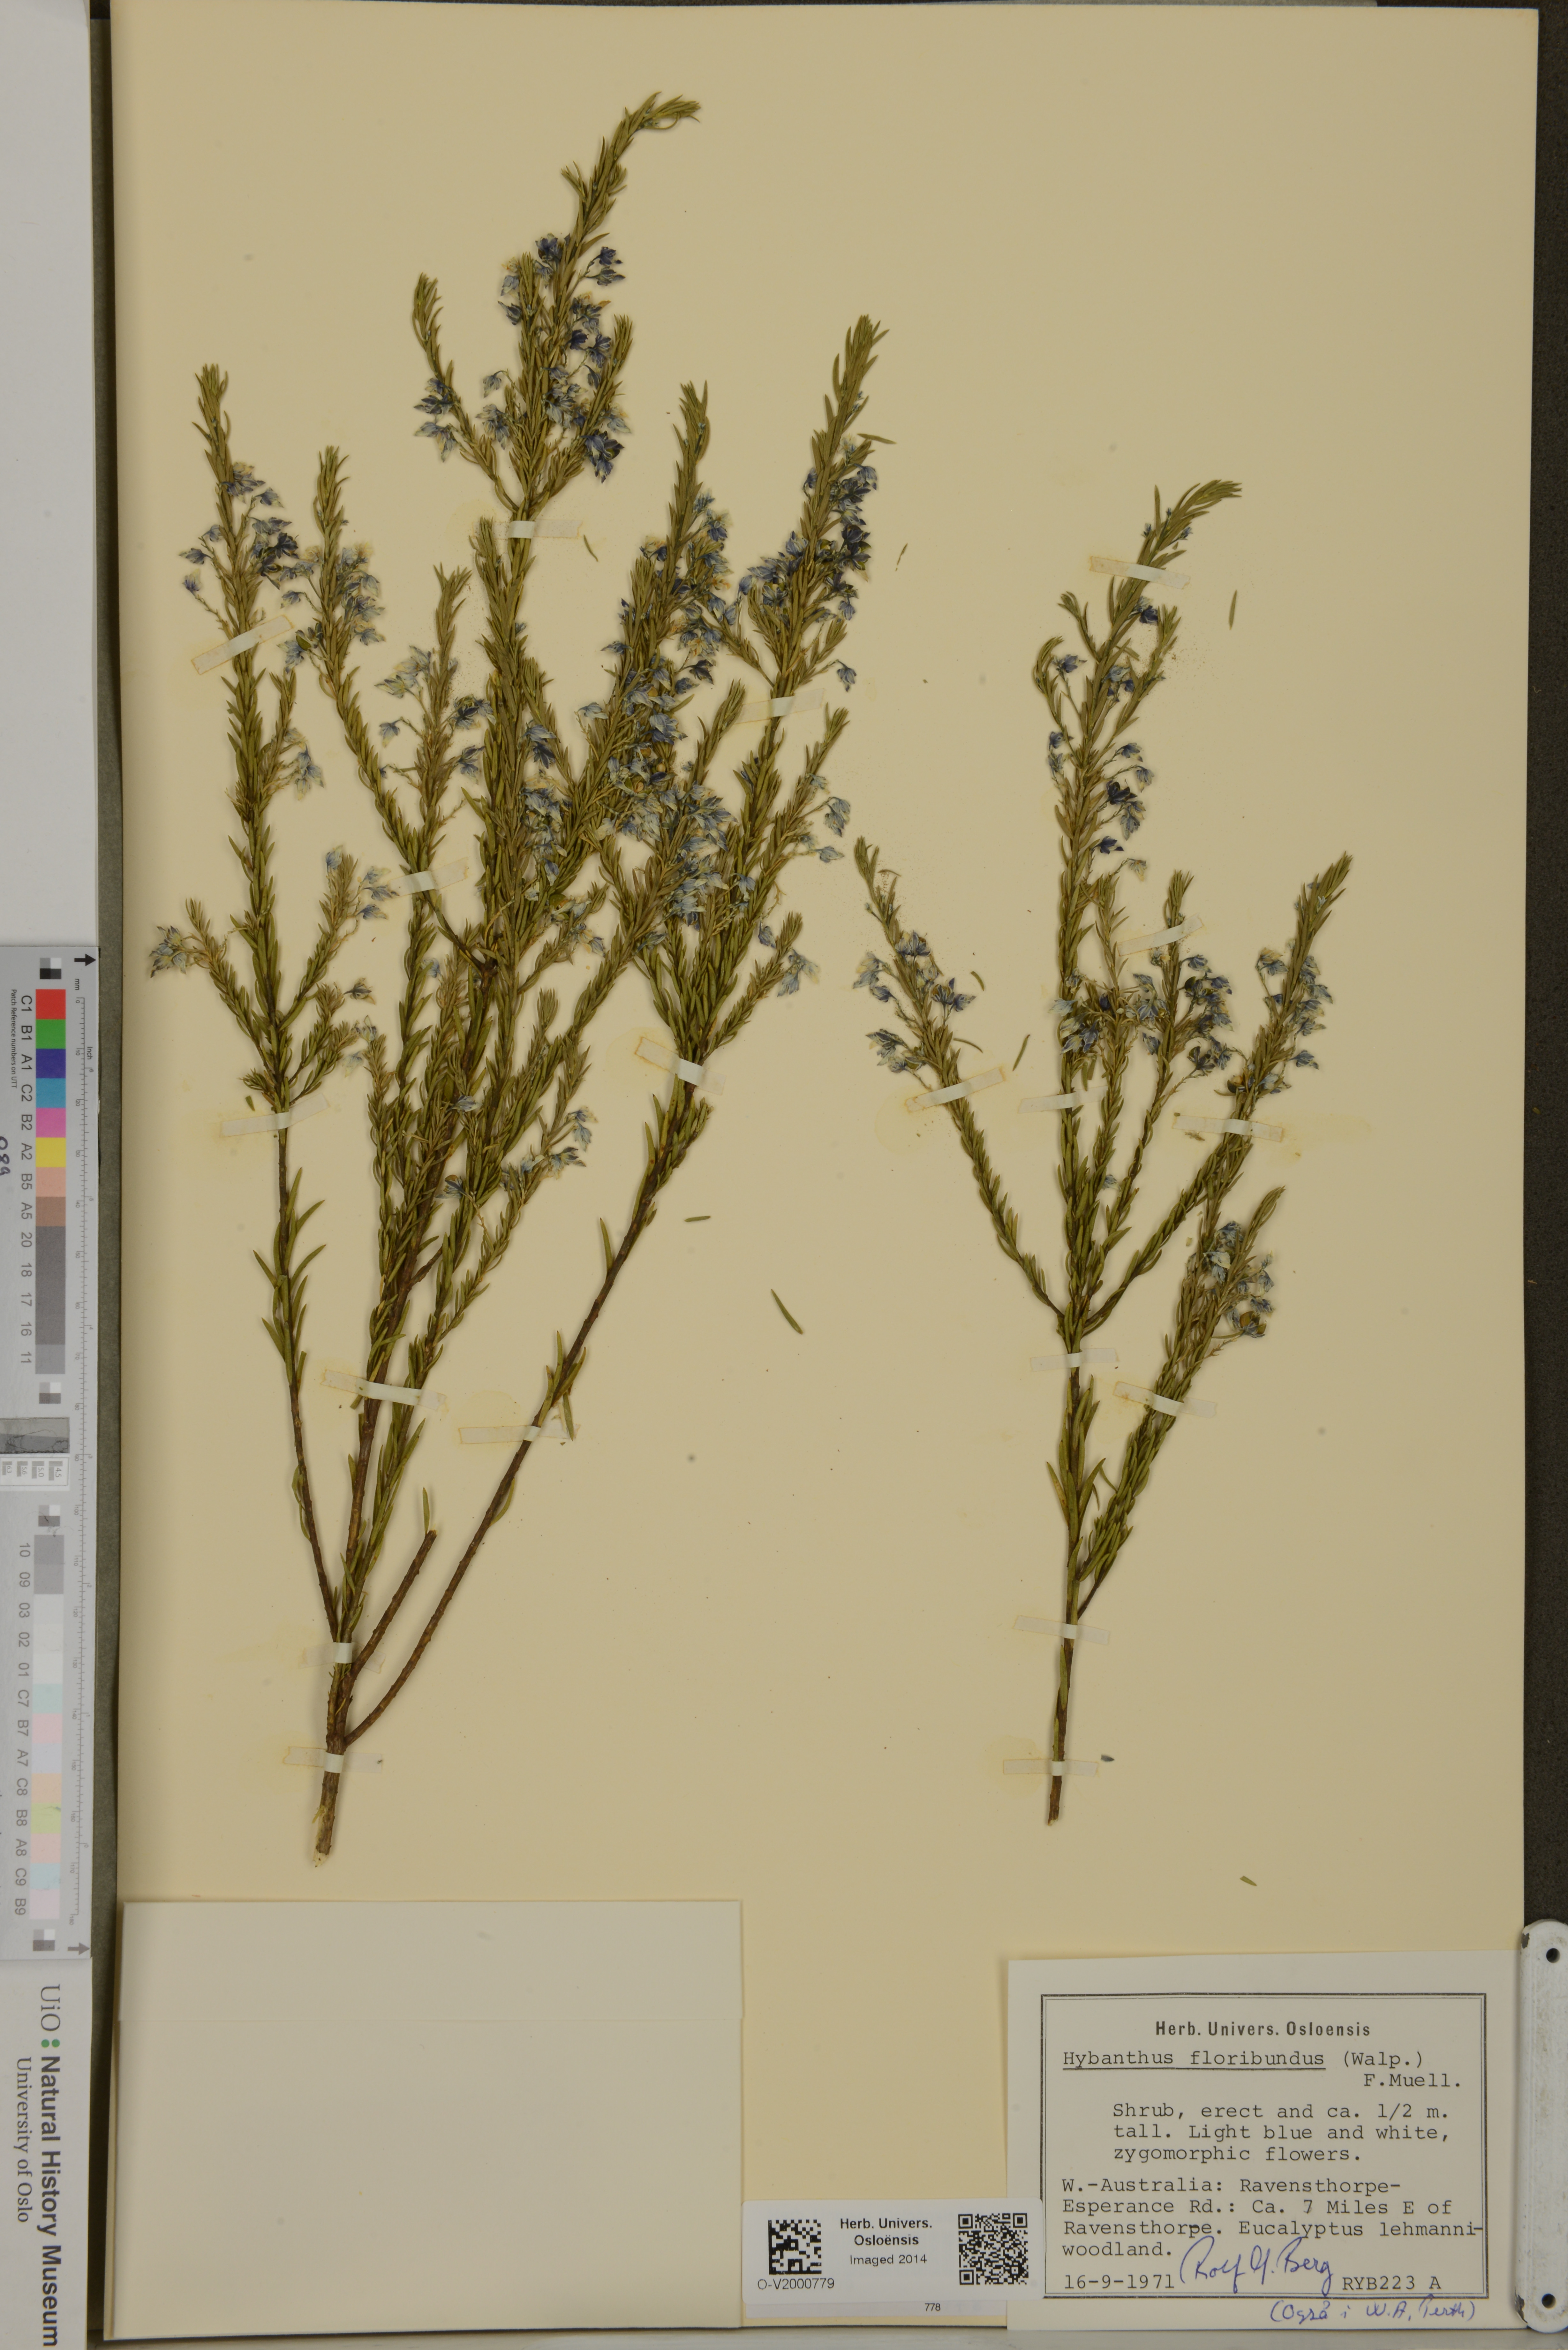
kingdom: Plantae
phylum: Tracheophyta
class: Magnoliopsida
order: Malpighiales
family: Violaceae
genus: Pigea
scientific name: Pigea floribunda
